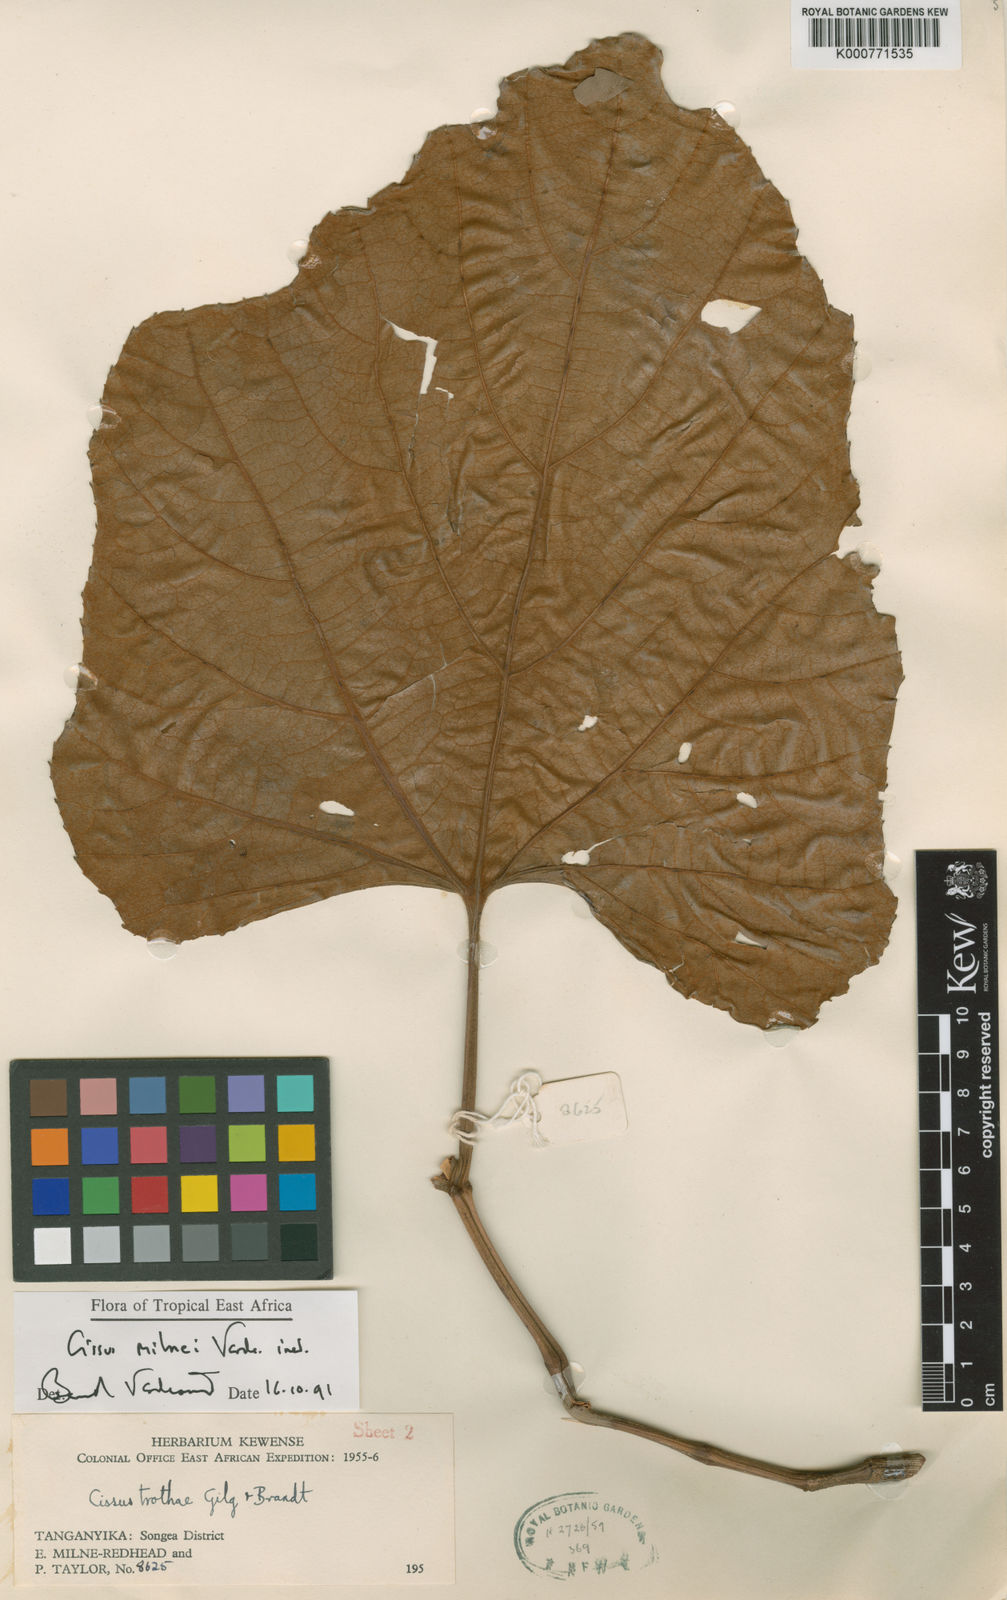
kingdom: Plantae
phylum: Tracheophyta
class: Magnoliopsida
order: Vitales
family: Vitaceae
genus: Cissus
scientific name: Cissus milnei
